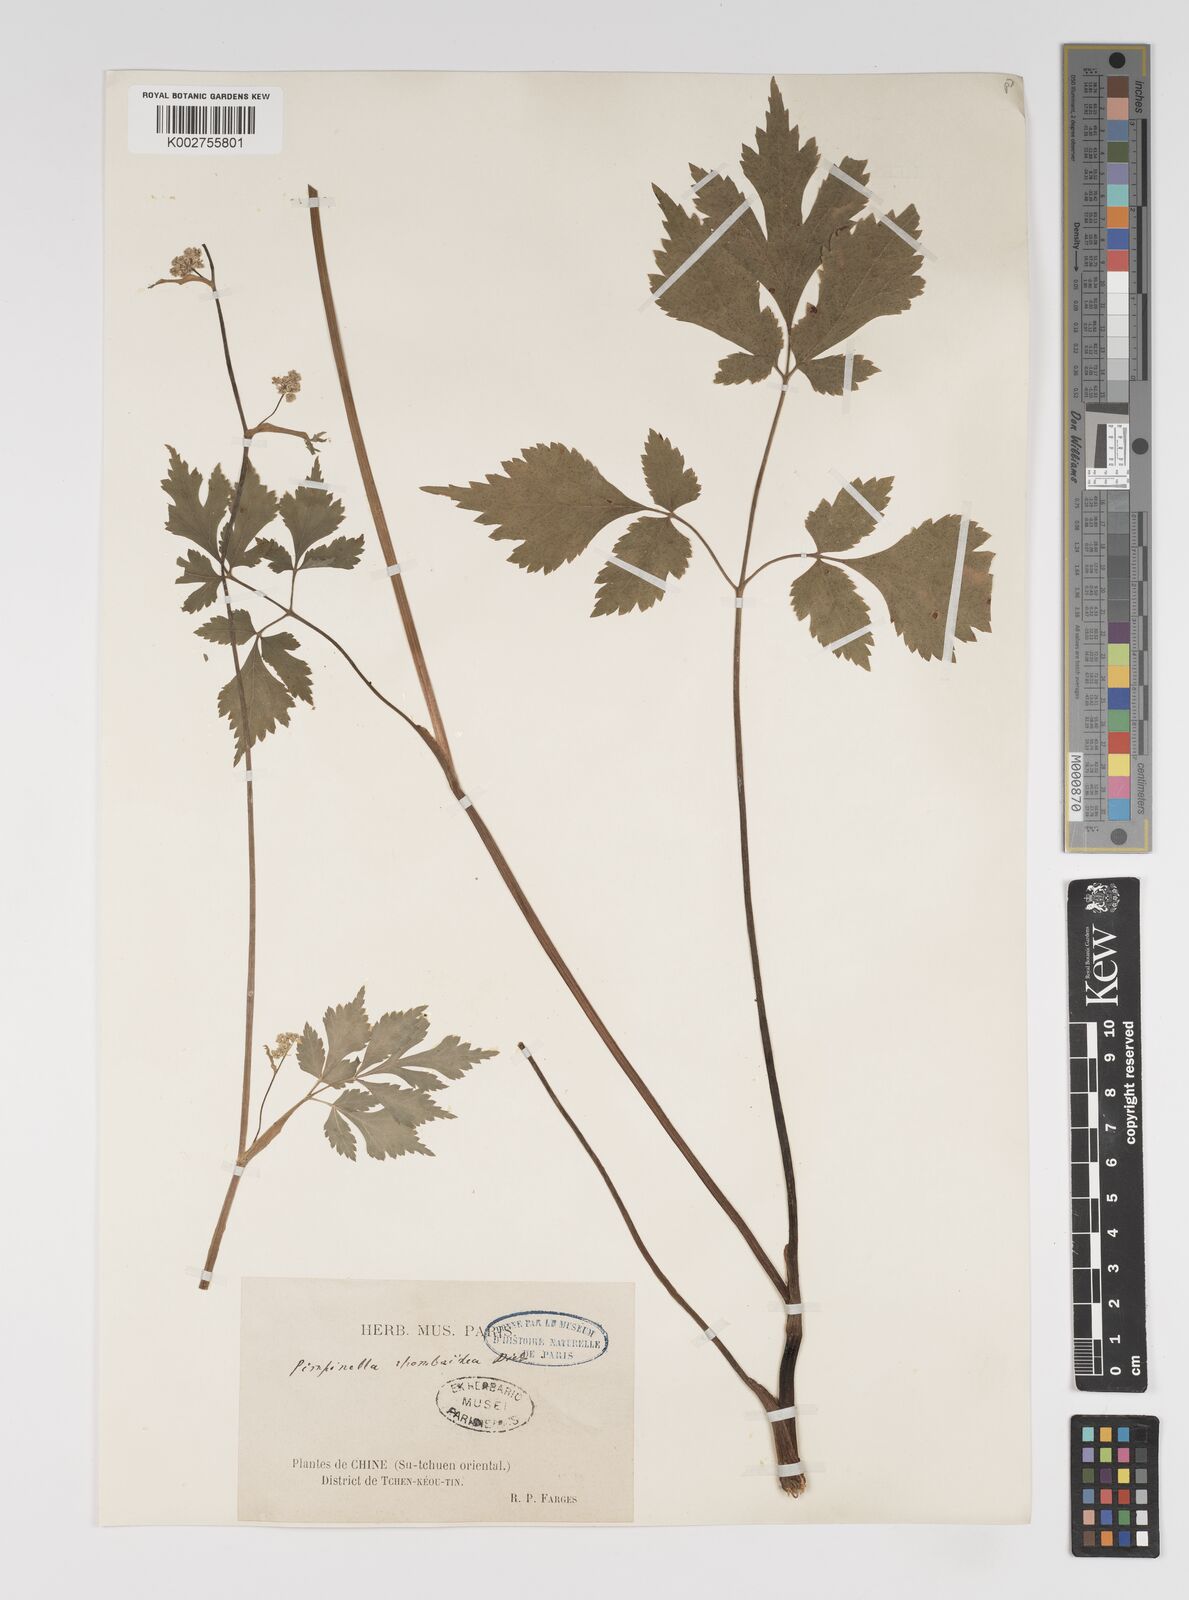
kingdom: Plantae
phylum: Tracheophyta
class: Magnoliopsida
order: Apiales
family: Apiaceae
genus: Pimpinella
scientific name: Pimpinella rhomboidea
